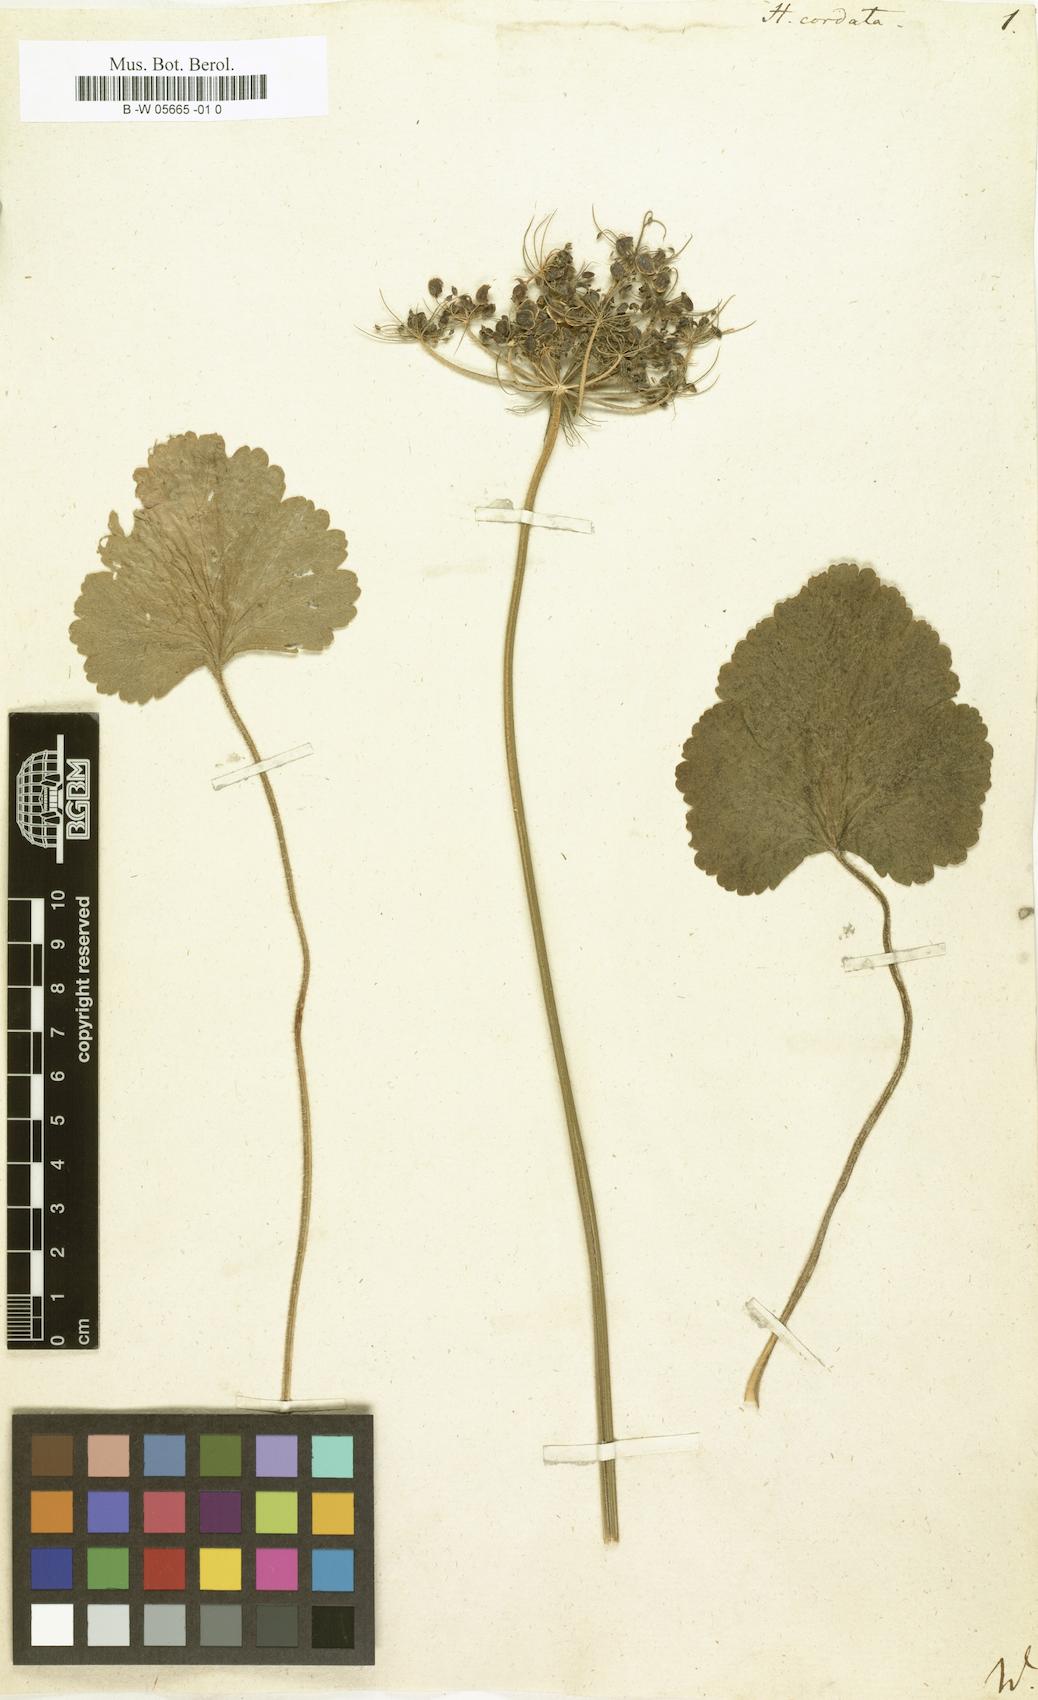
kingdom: Plantae
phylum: Tracheophyta
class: Magnoliopsida
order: Apiales
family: Apiaceae
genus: Ainsworthia
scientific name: Ainsworthia cordata
